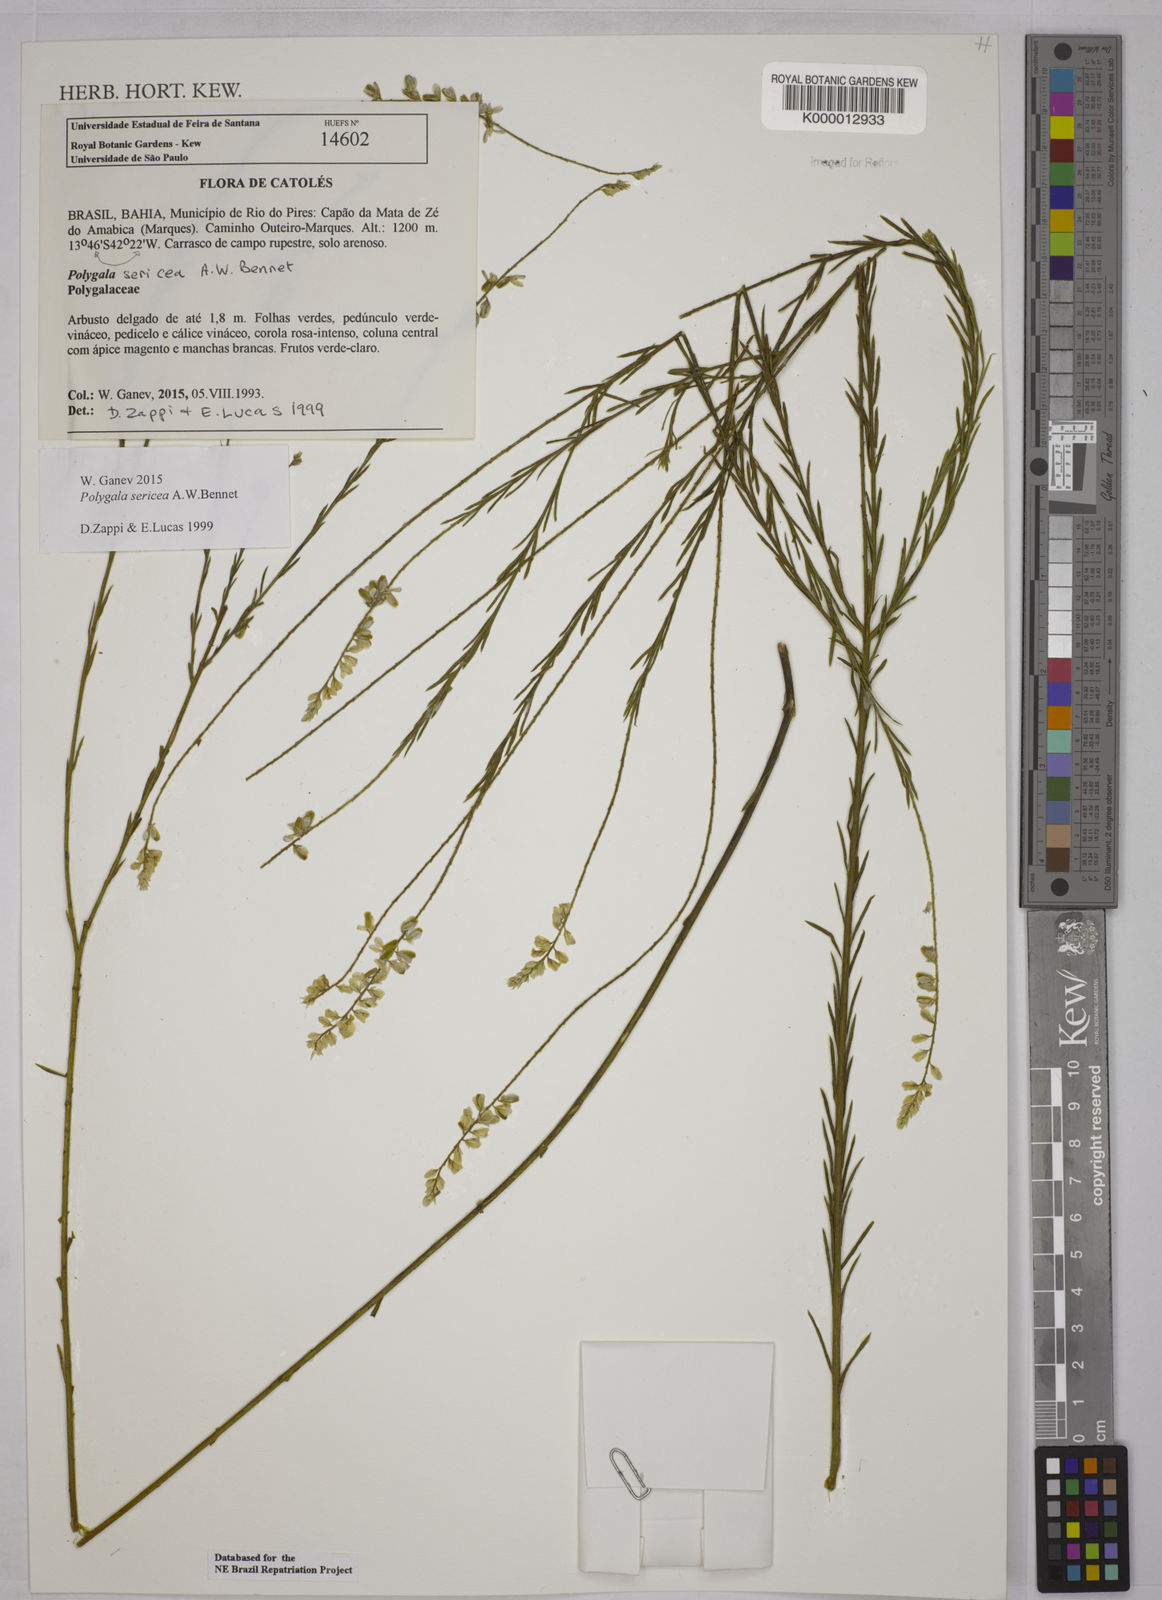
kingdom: Plantae
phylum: Tracheophyta
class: Magnoliopsida
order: Fabales
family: Polygalaceae
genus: Polygala
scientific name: Polygala sericea
